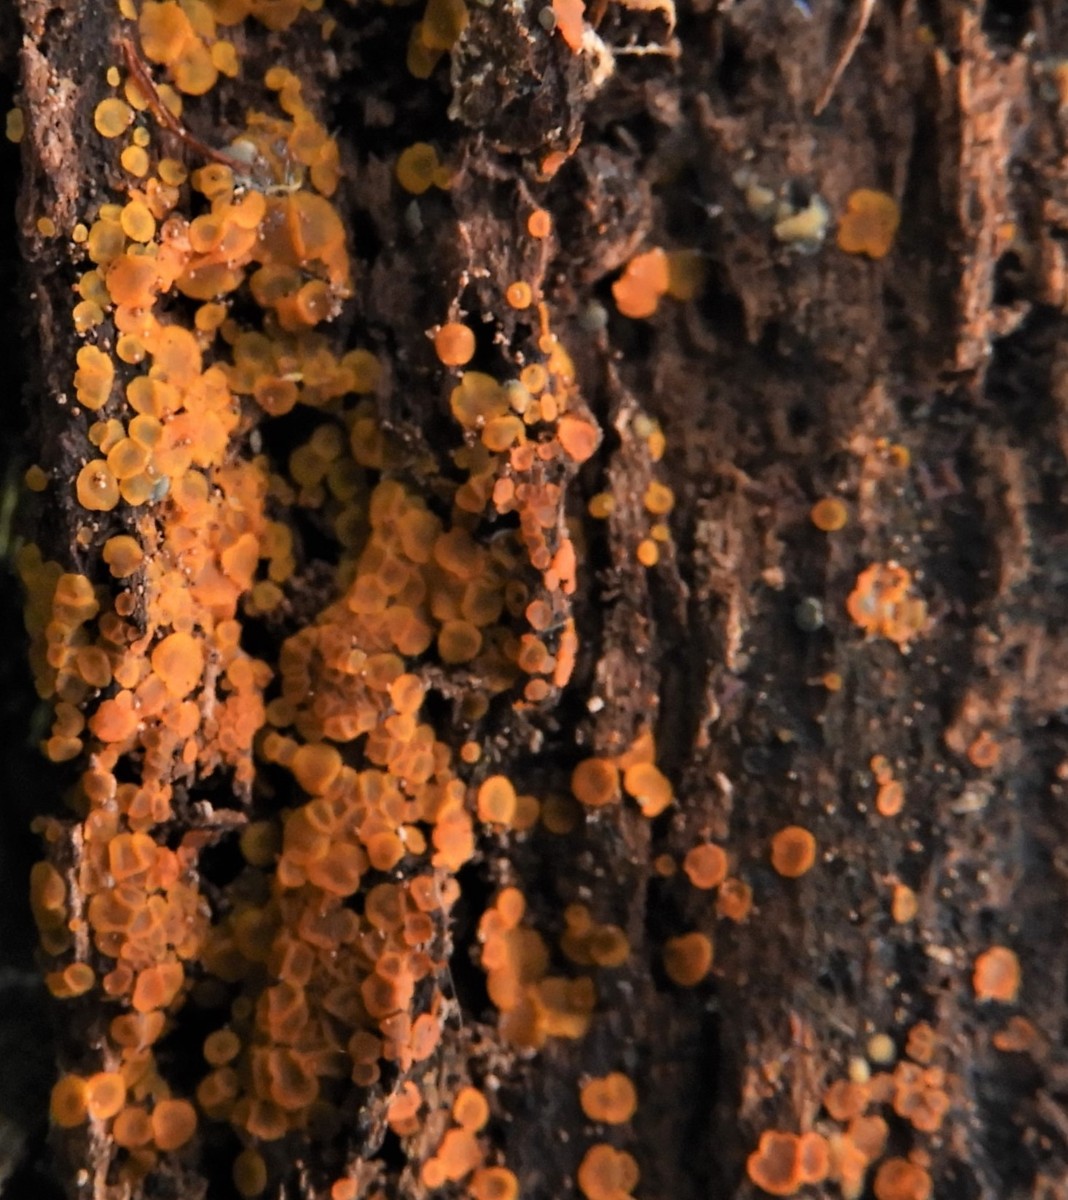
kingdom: Fungi
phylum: Ascomycota
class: Orbiliomycetes
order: Orbiliales
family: Orbiliaceae
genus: Orbilia
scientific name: Orbilia xanthostigma
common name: krumsporet voksskive
